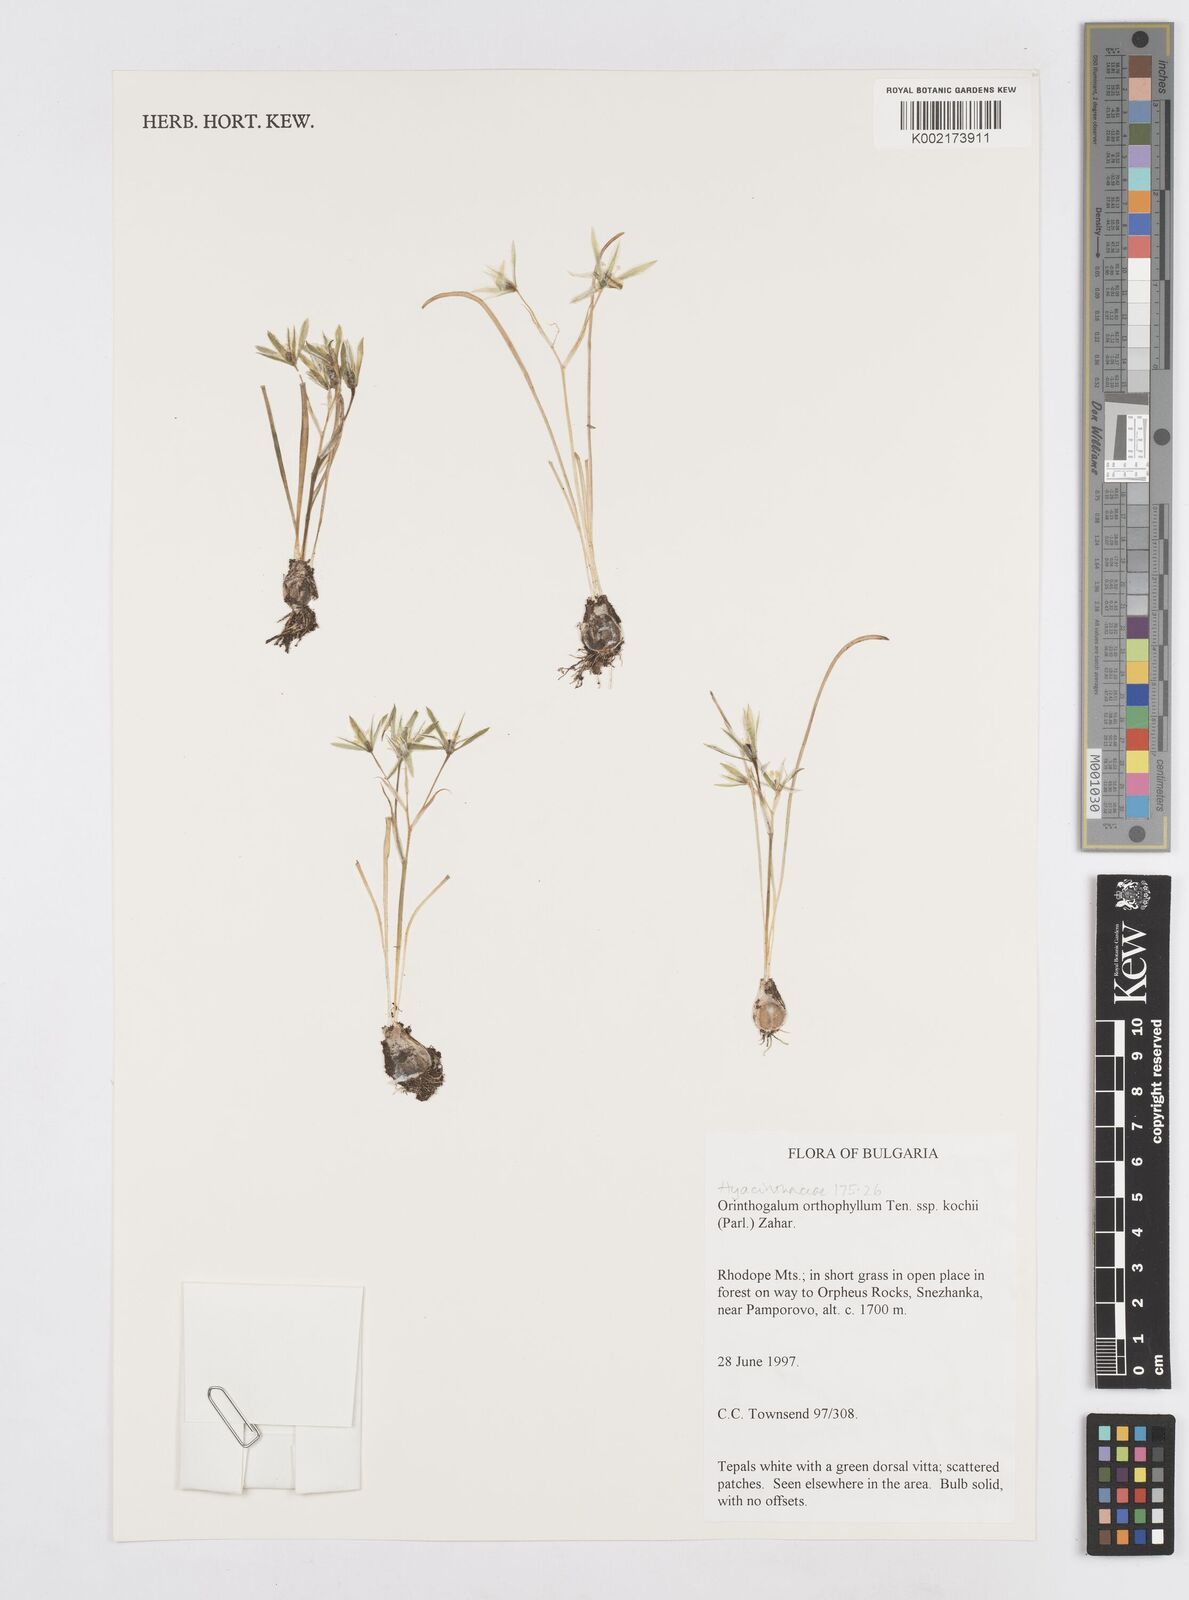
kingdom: Plantae
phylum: Tracheophyta
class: Liliopsida
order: Asparagales
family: Asparagaceae
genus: Ornithogalum
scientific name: Ornithogalum orthophyllum
